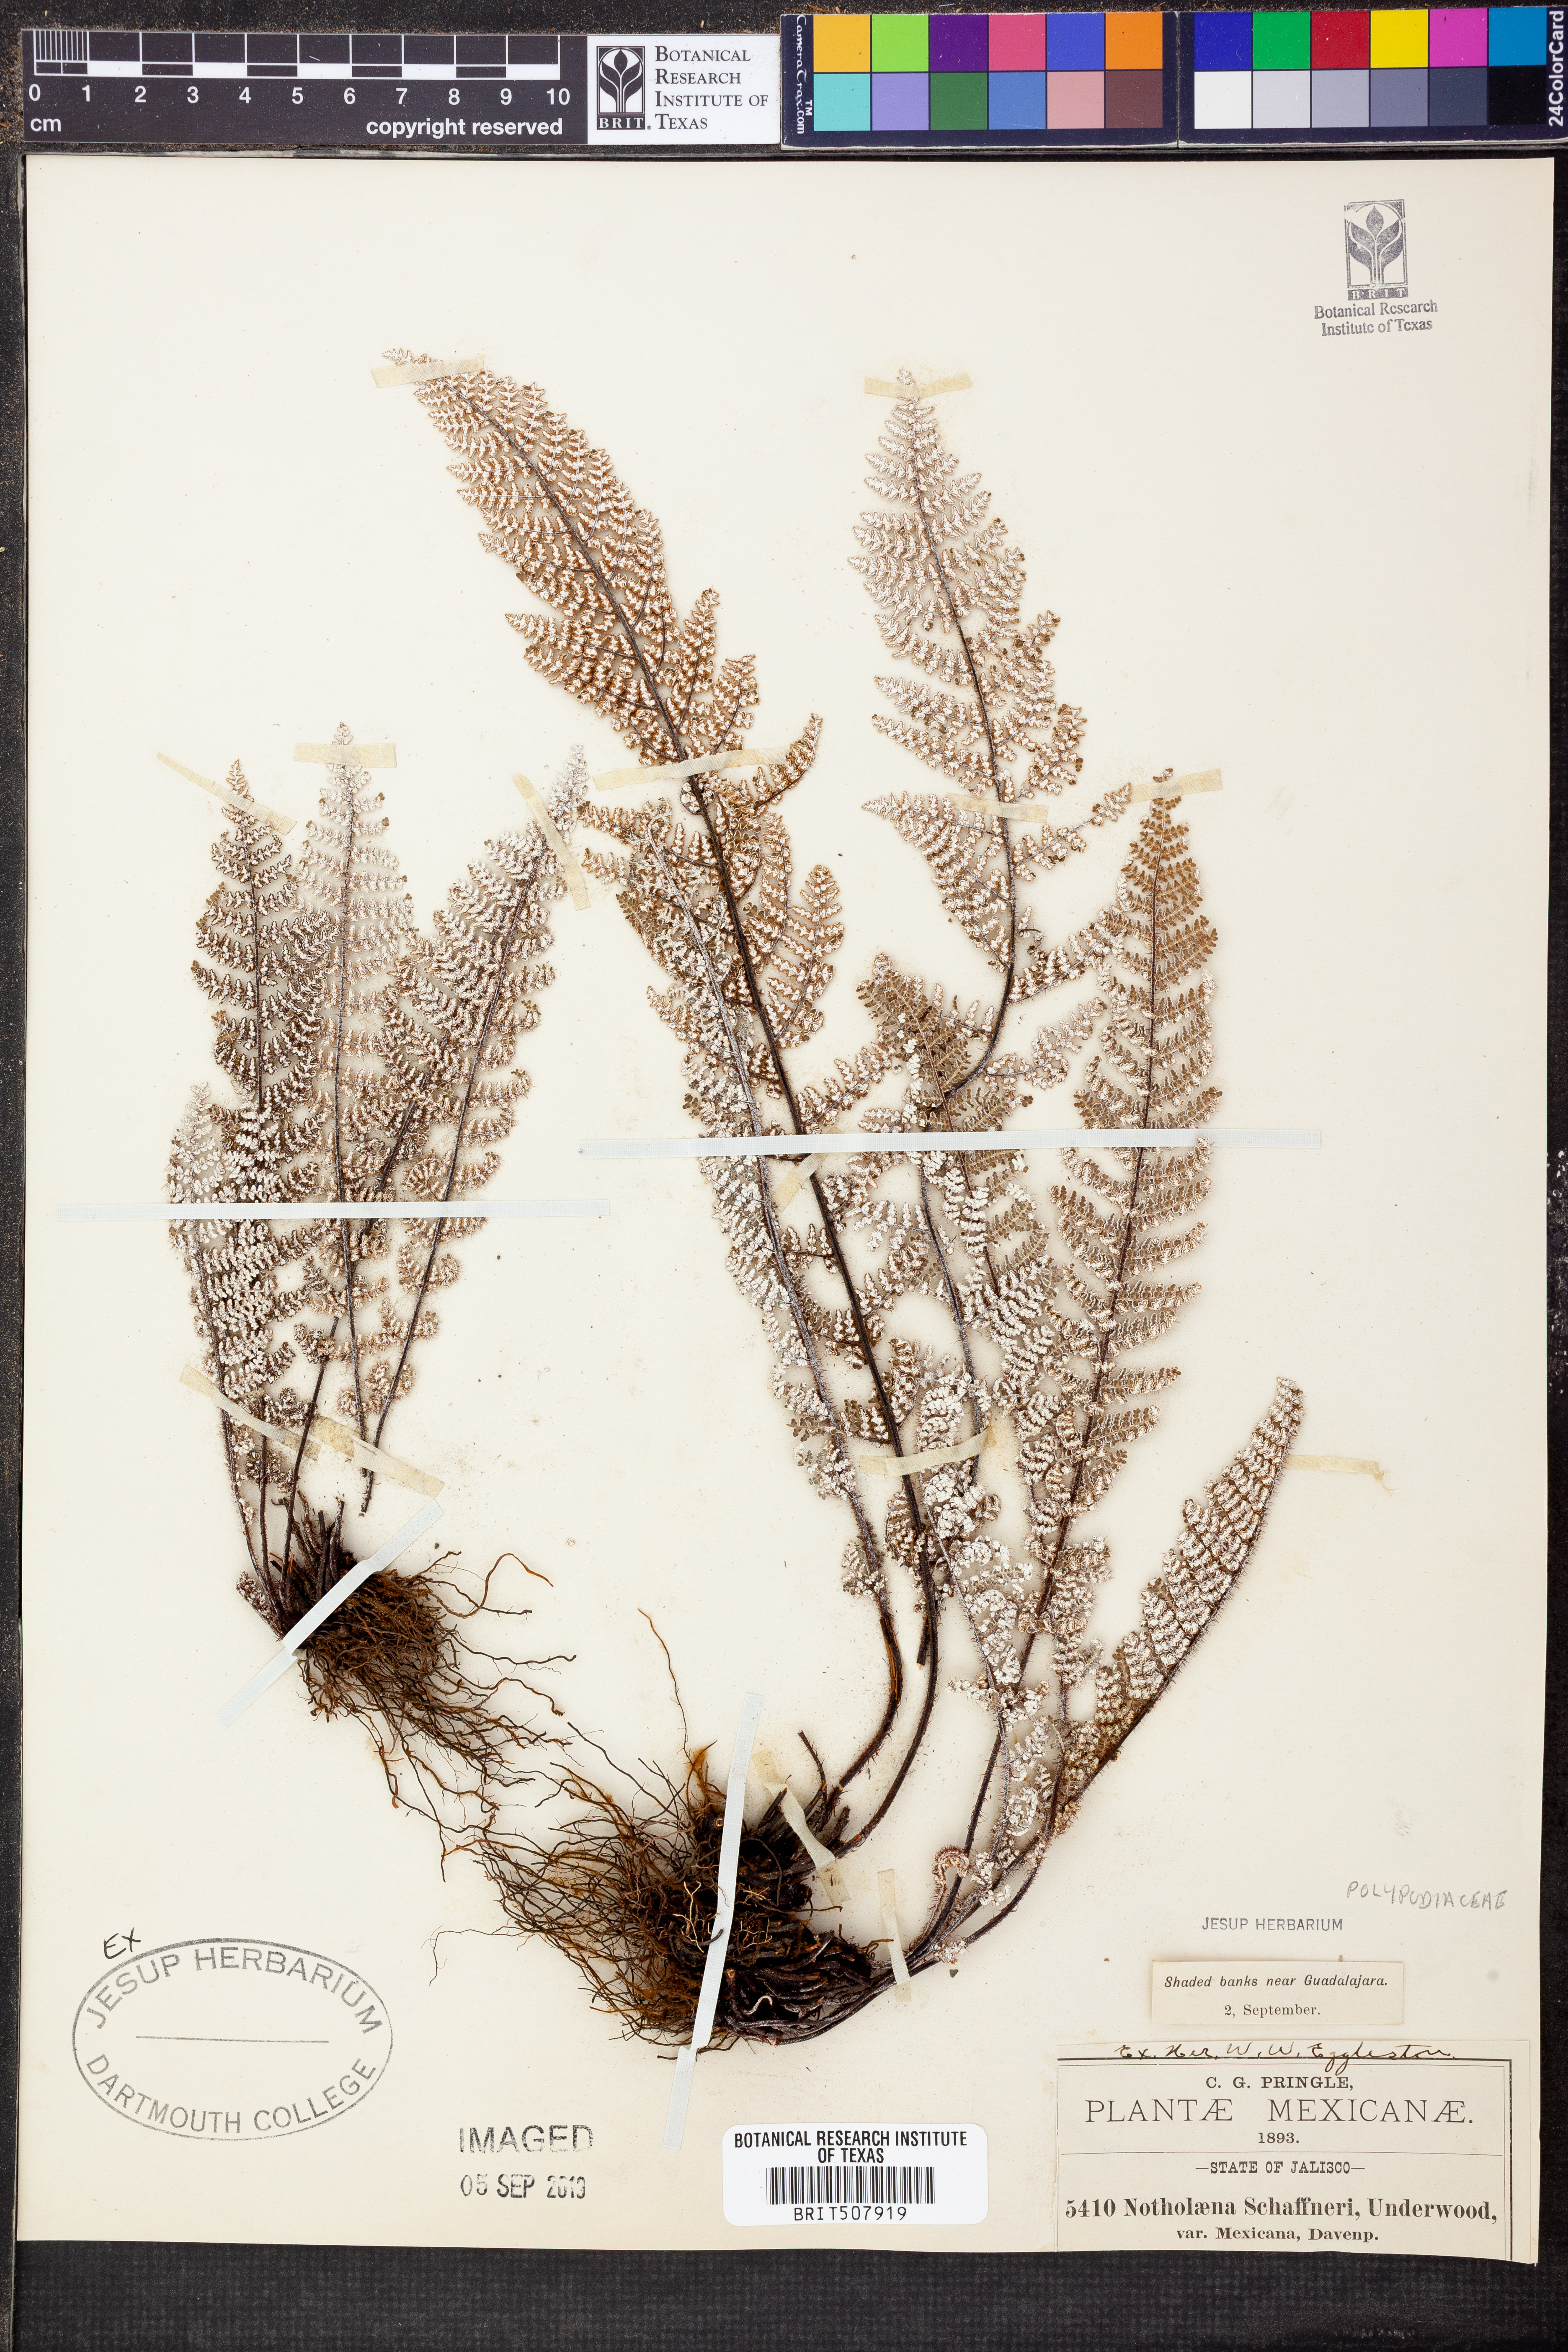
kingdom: Plantae
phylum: Tracheophyta
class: Polypodiopsida
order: Polypodiales
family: Pteridaceae
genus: Notholaena
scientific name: Notholaena schaffneri
